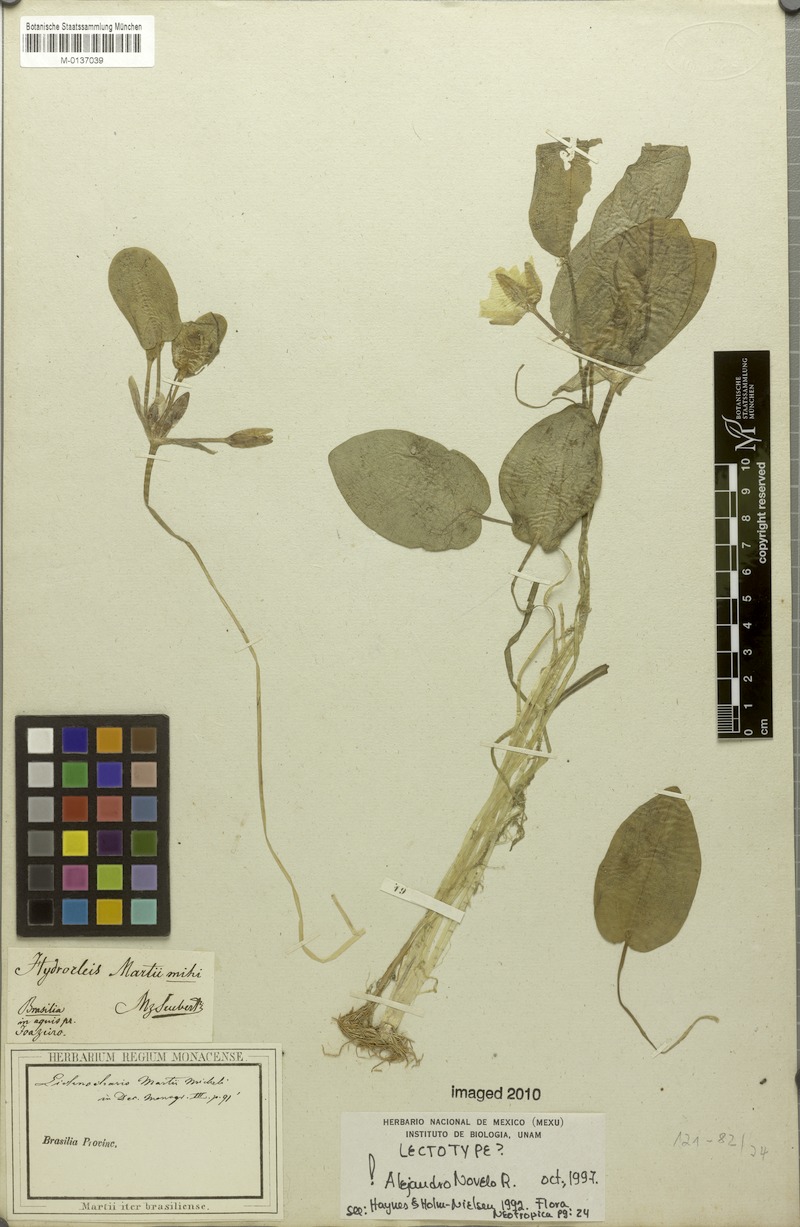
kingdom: Plantae
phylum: Tracheophyta
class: Liliopsida
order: Alismatales
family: Alismataceae
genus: Hydrocleys
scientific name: Hydrocleys martii
